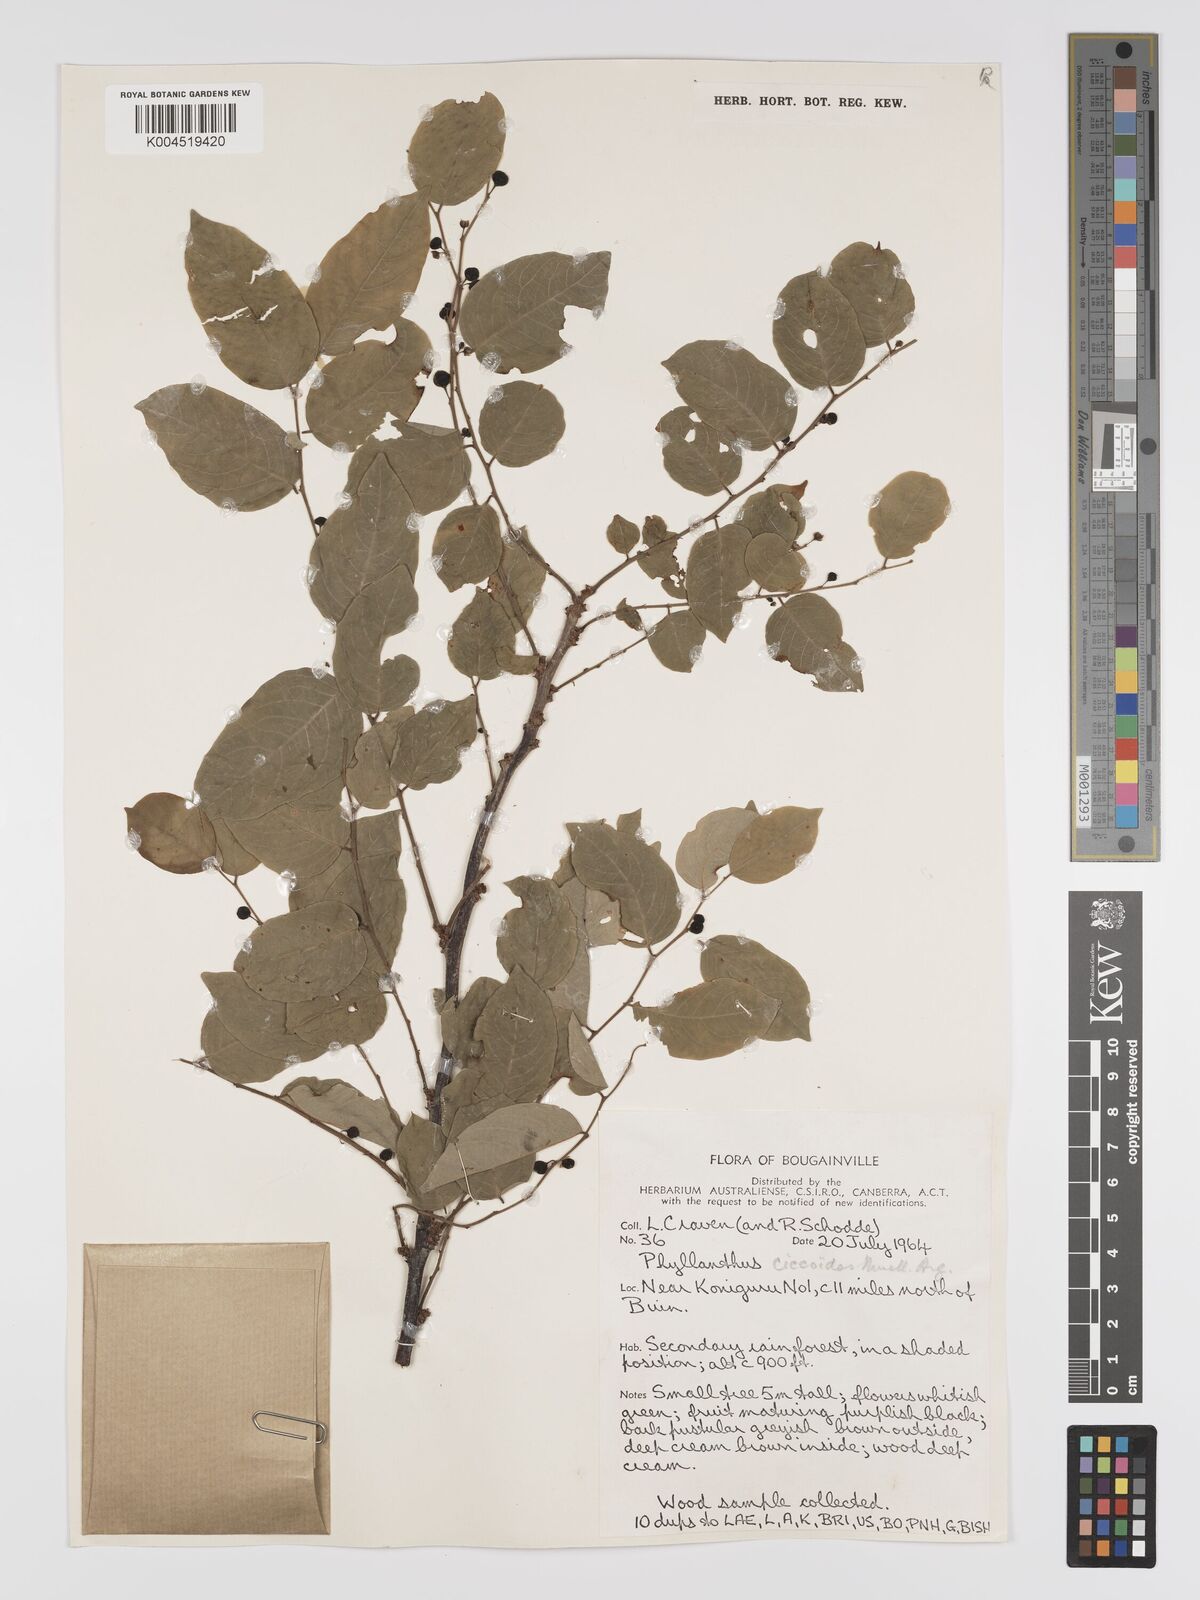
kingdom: Plantae
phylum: Tracheophyta
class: Magnoliopsida
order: Malpighiales
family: Phyllanthaceae
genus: Phyllanthus
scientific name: Phyllanthus ciccoides
